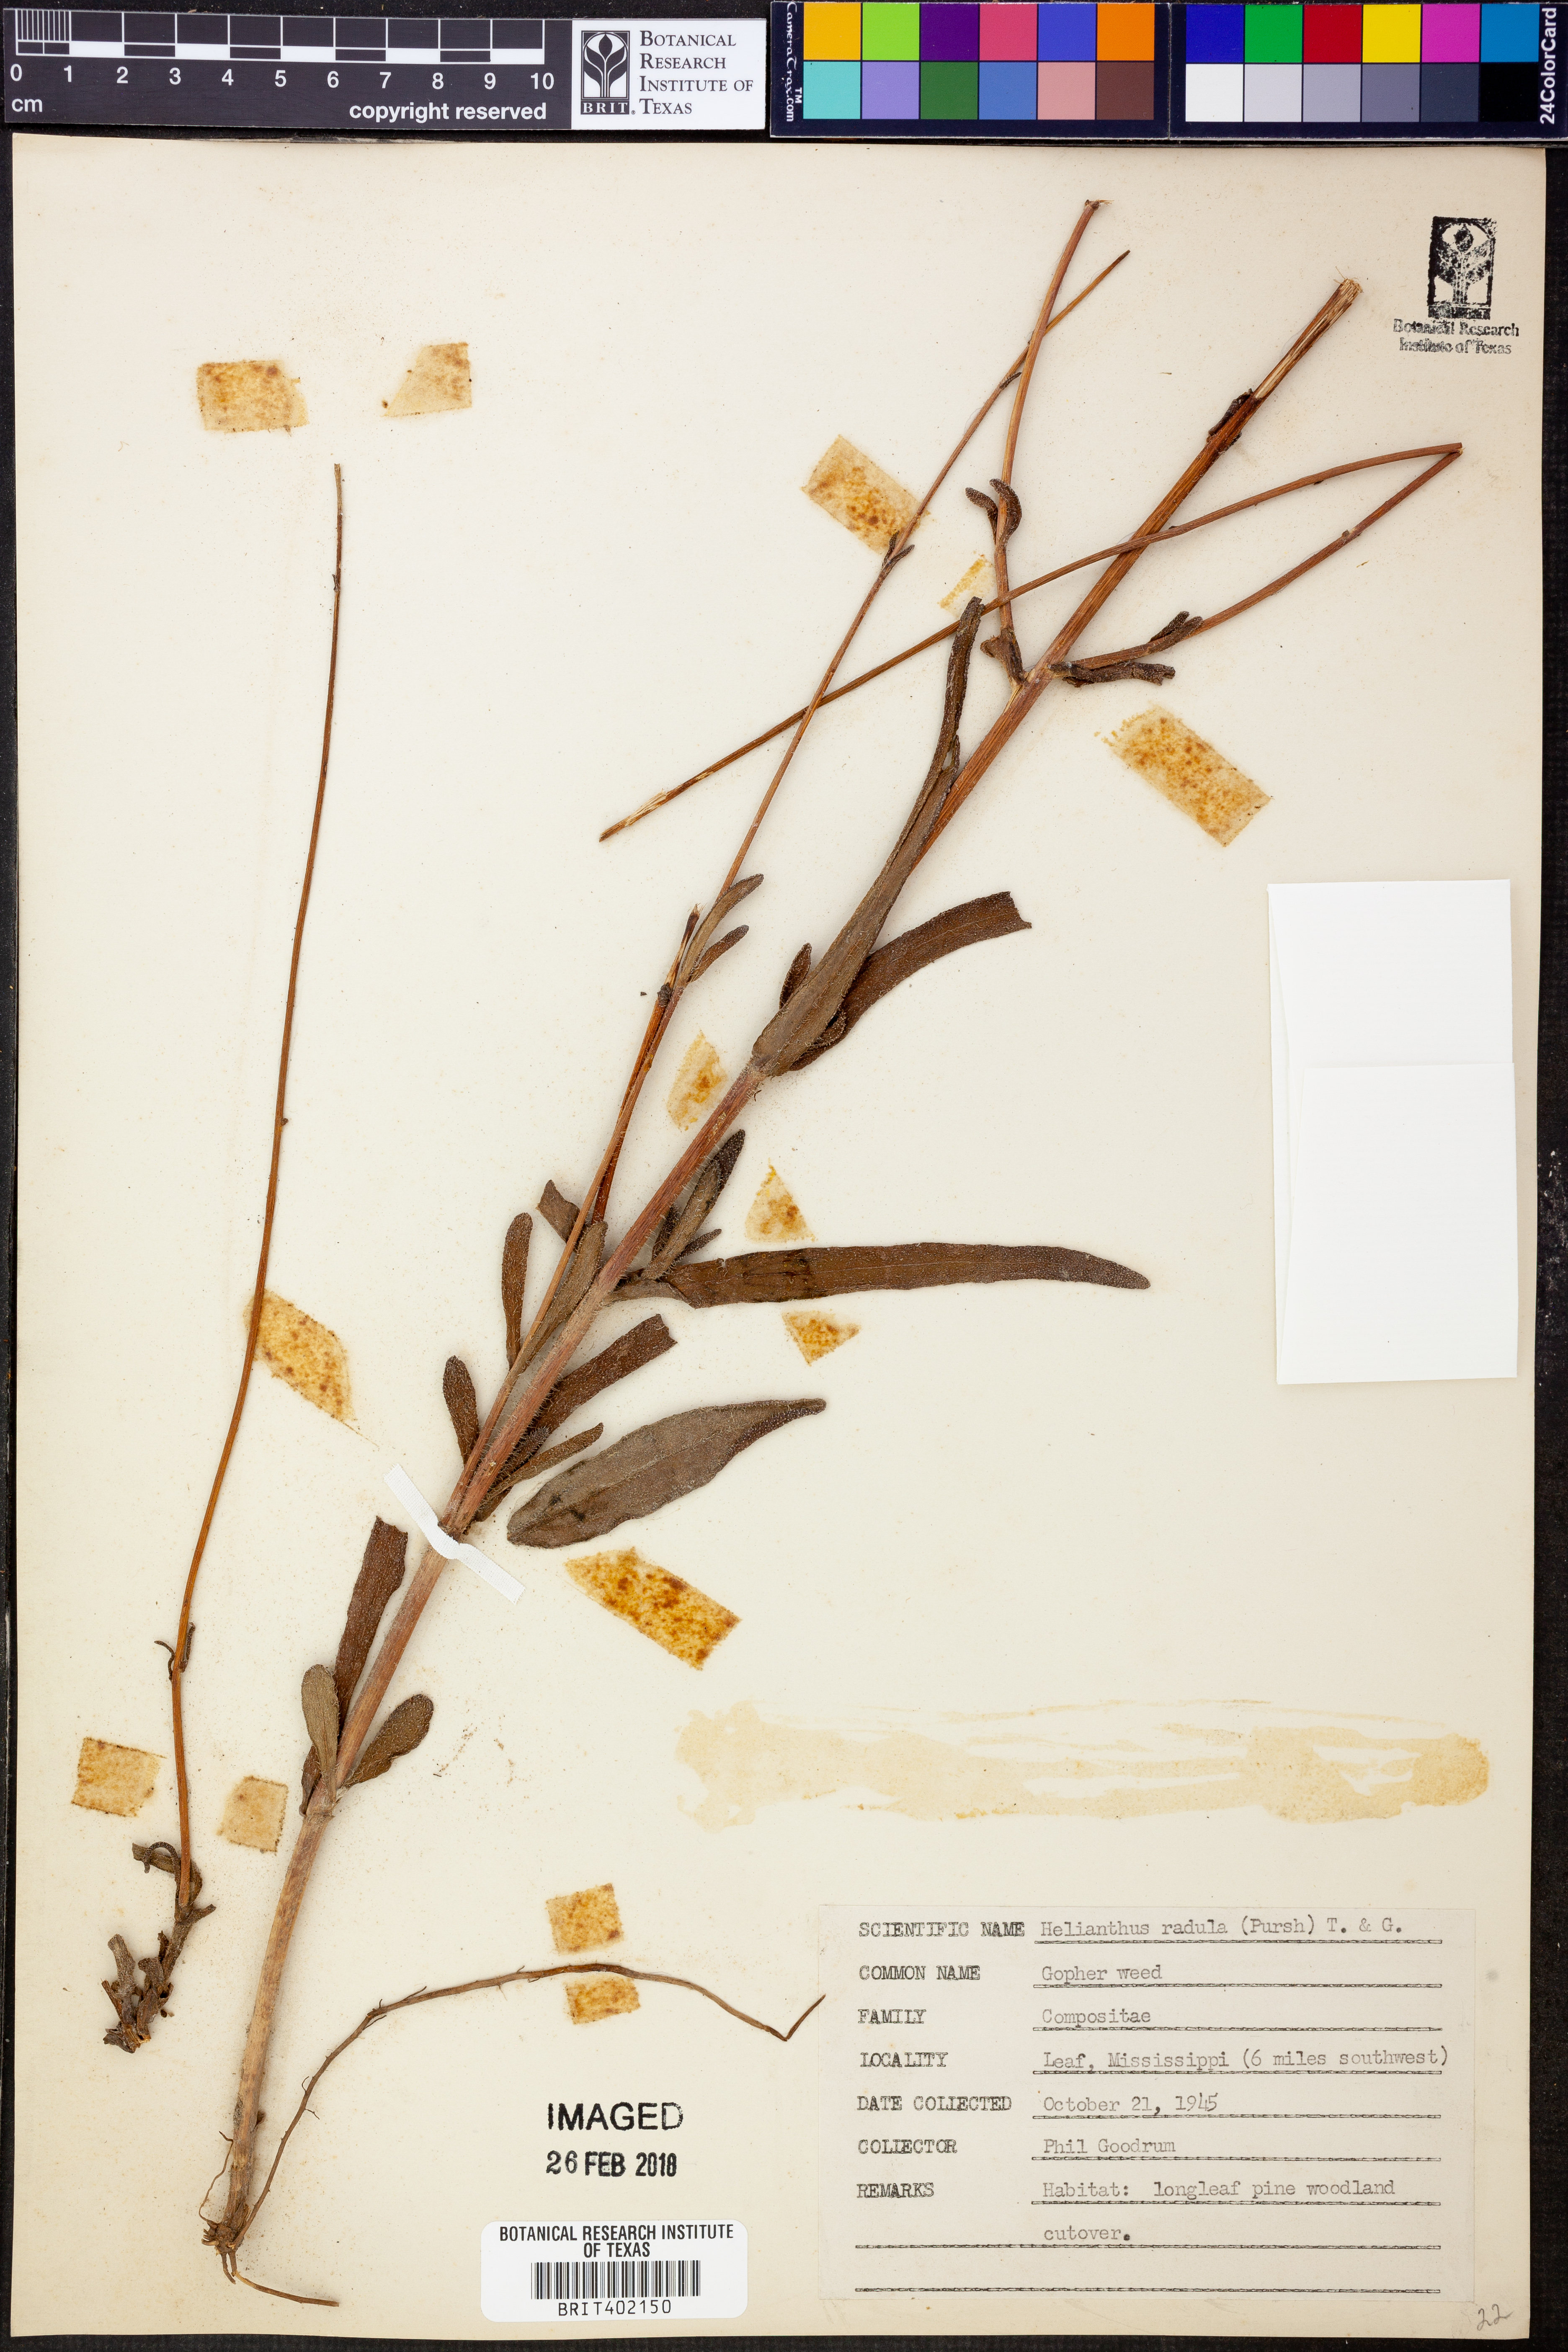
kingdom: Plantae
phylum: Tracheophyta
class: Magnoliopsida
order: Asterales
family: Asteraceae
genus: Helianthus
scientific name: Helianthus radula
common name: Pineland sunflower
